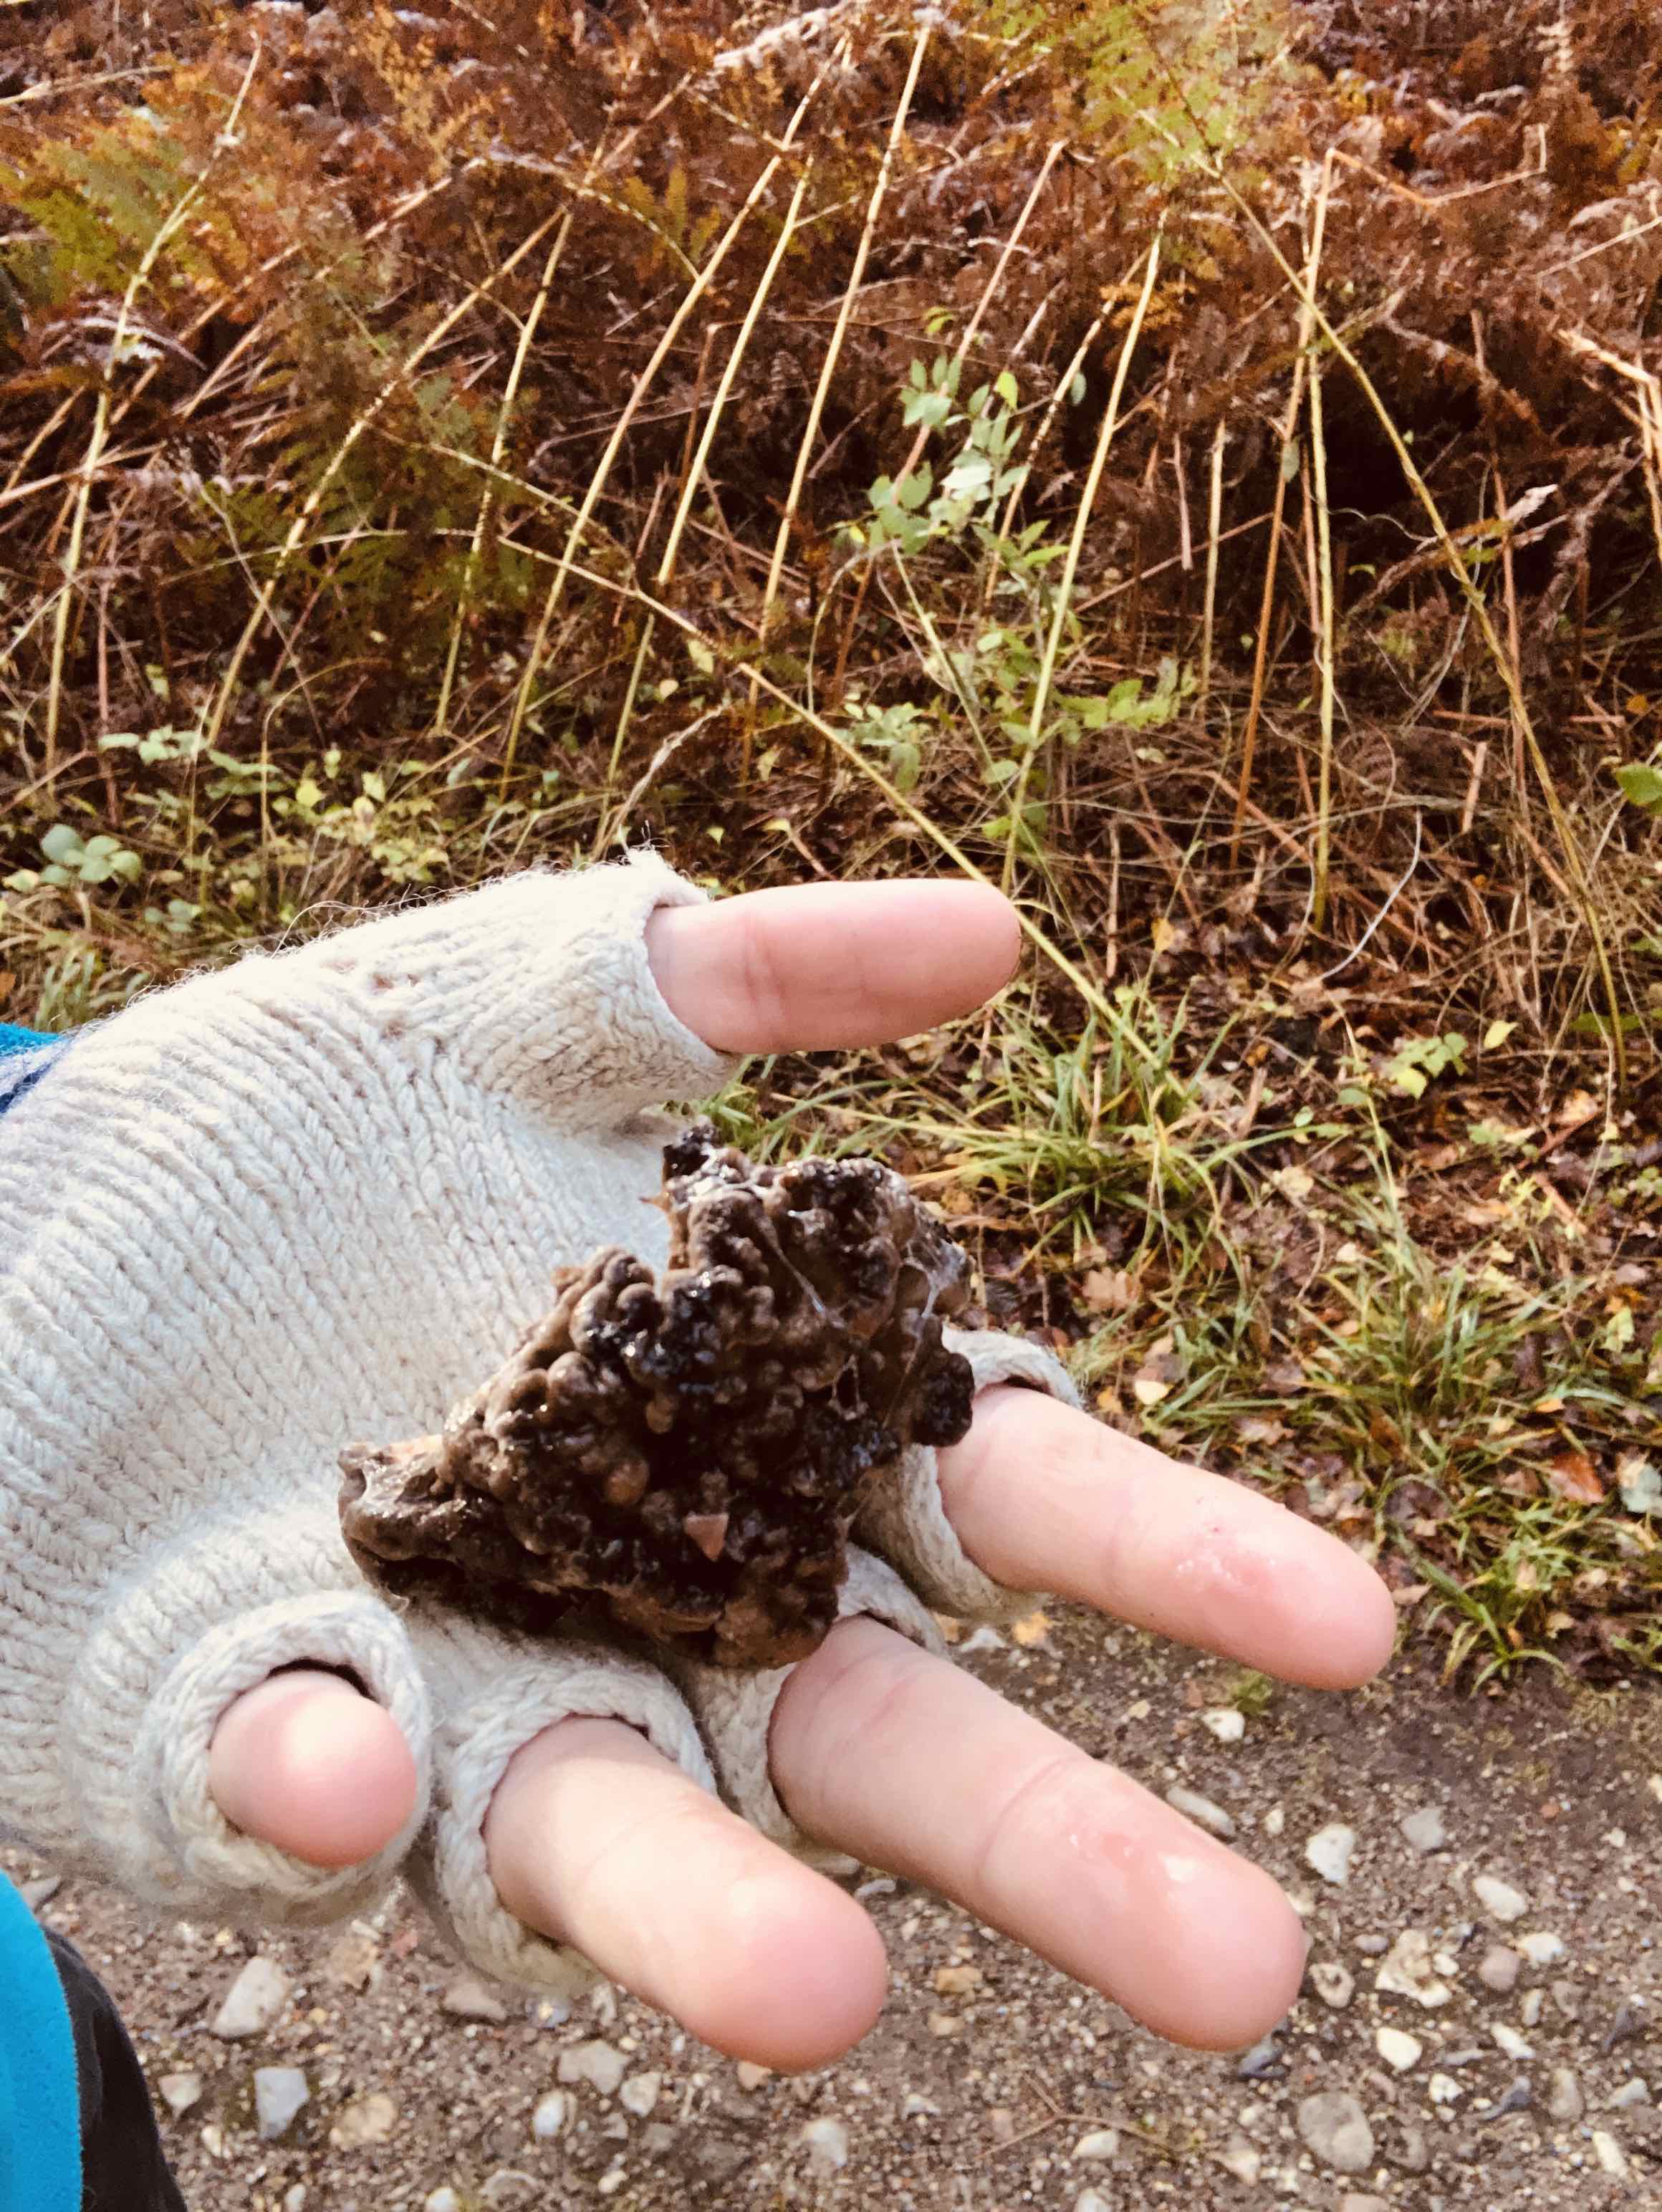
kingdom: Fungi
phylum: Basidiomycota
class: Agaricomycetes
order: Polyporales
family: Grifolaceae
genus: Grifola
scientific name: Grifola frondosa
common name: tueporesvamp
